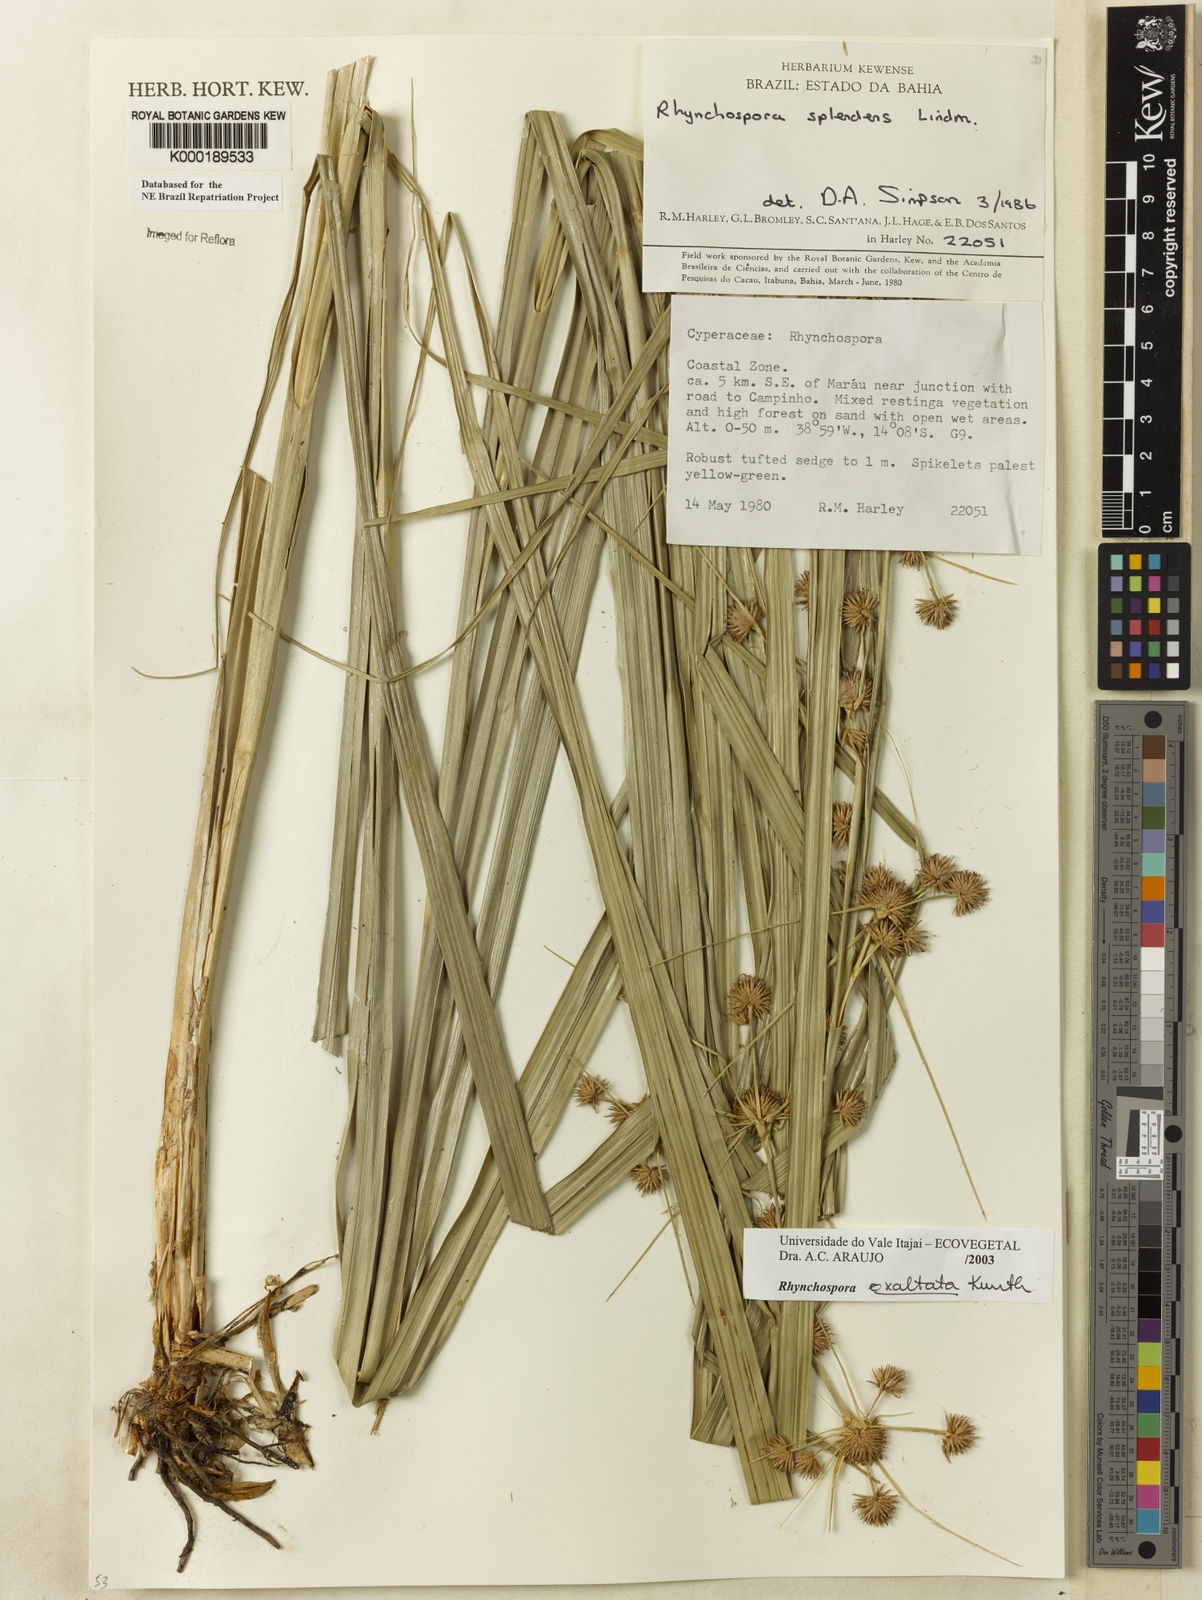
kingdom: Plantae
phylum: Tracheophyta
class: Liliopsida
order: Poales
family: Cyperaceae
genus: Rhynchospora
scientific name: Rhynchospora exaltata
